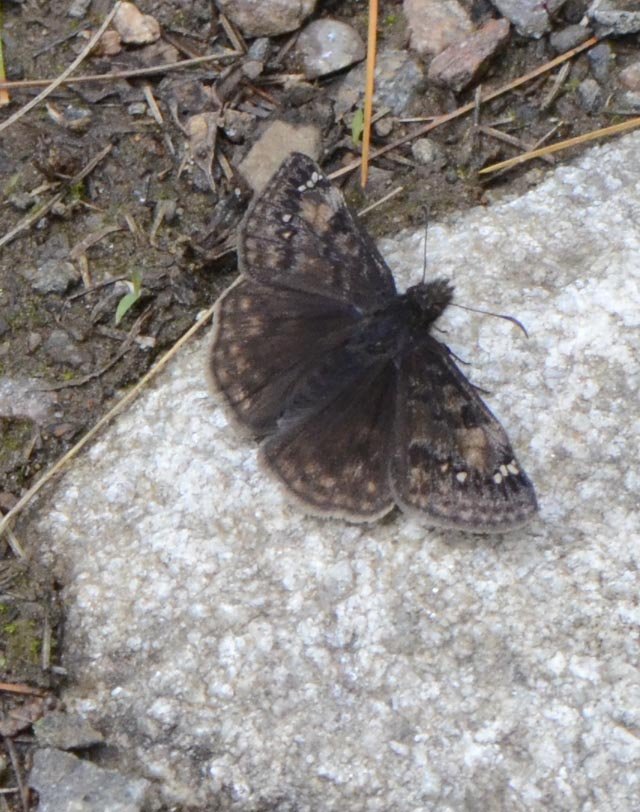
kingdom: Animalia
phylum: Arthropoda
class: Insecta
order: Lepidoptera
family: Hesperiidae
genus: Gesta
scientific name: Gesta
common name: Juvenal's Duskywing
